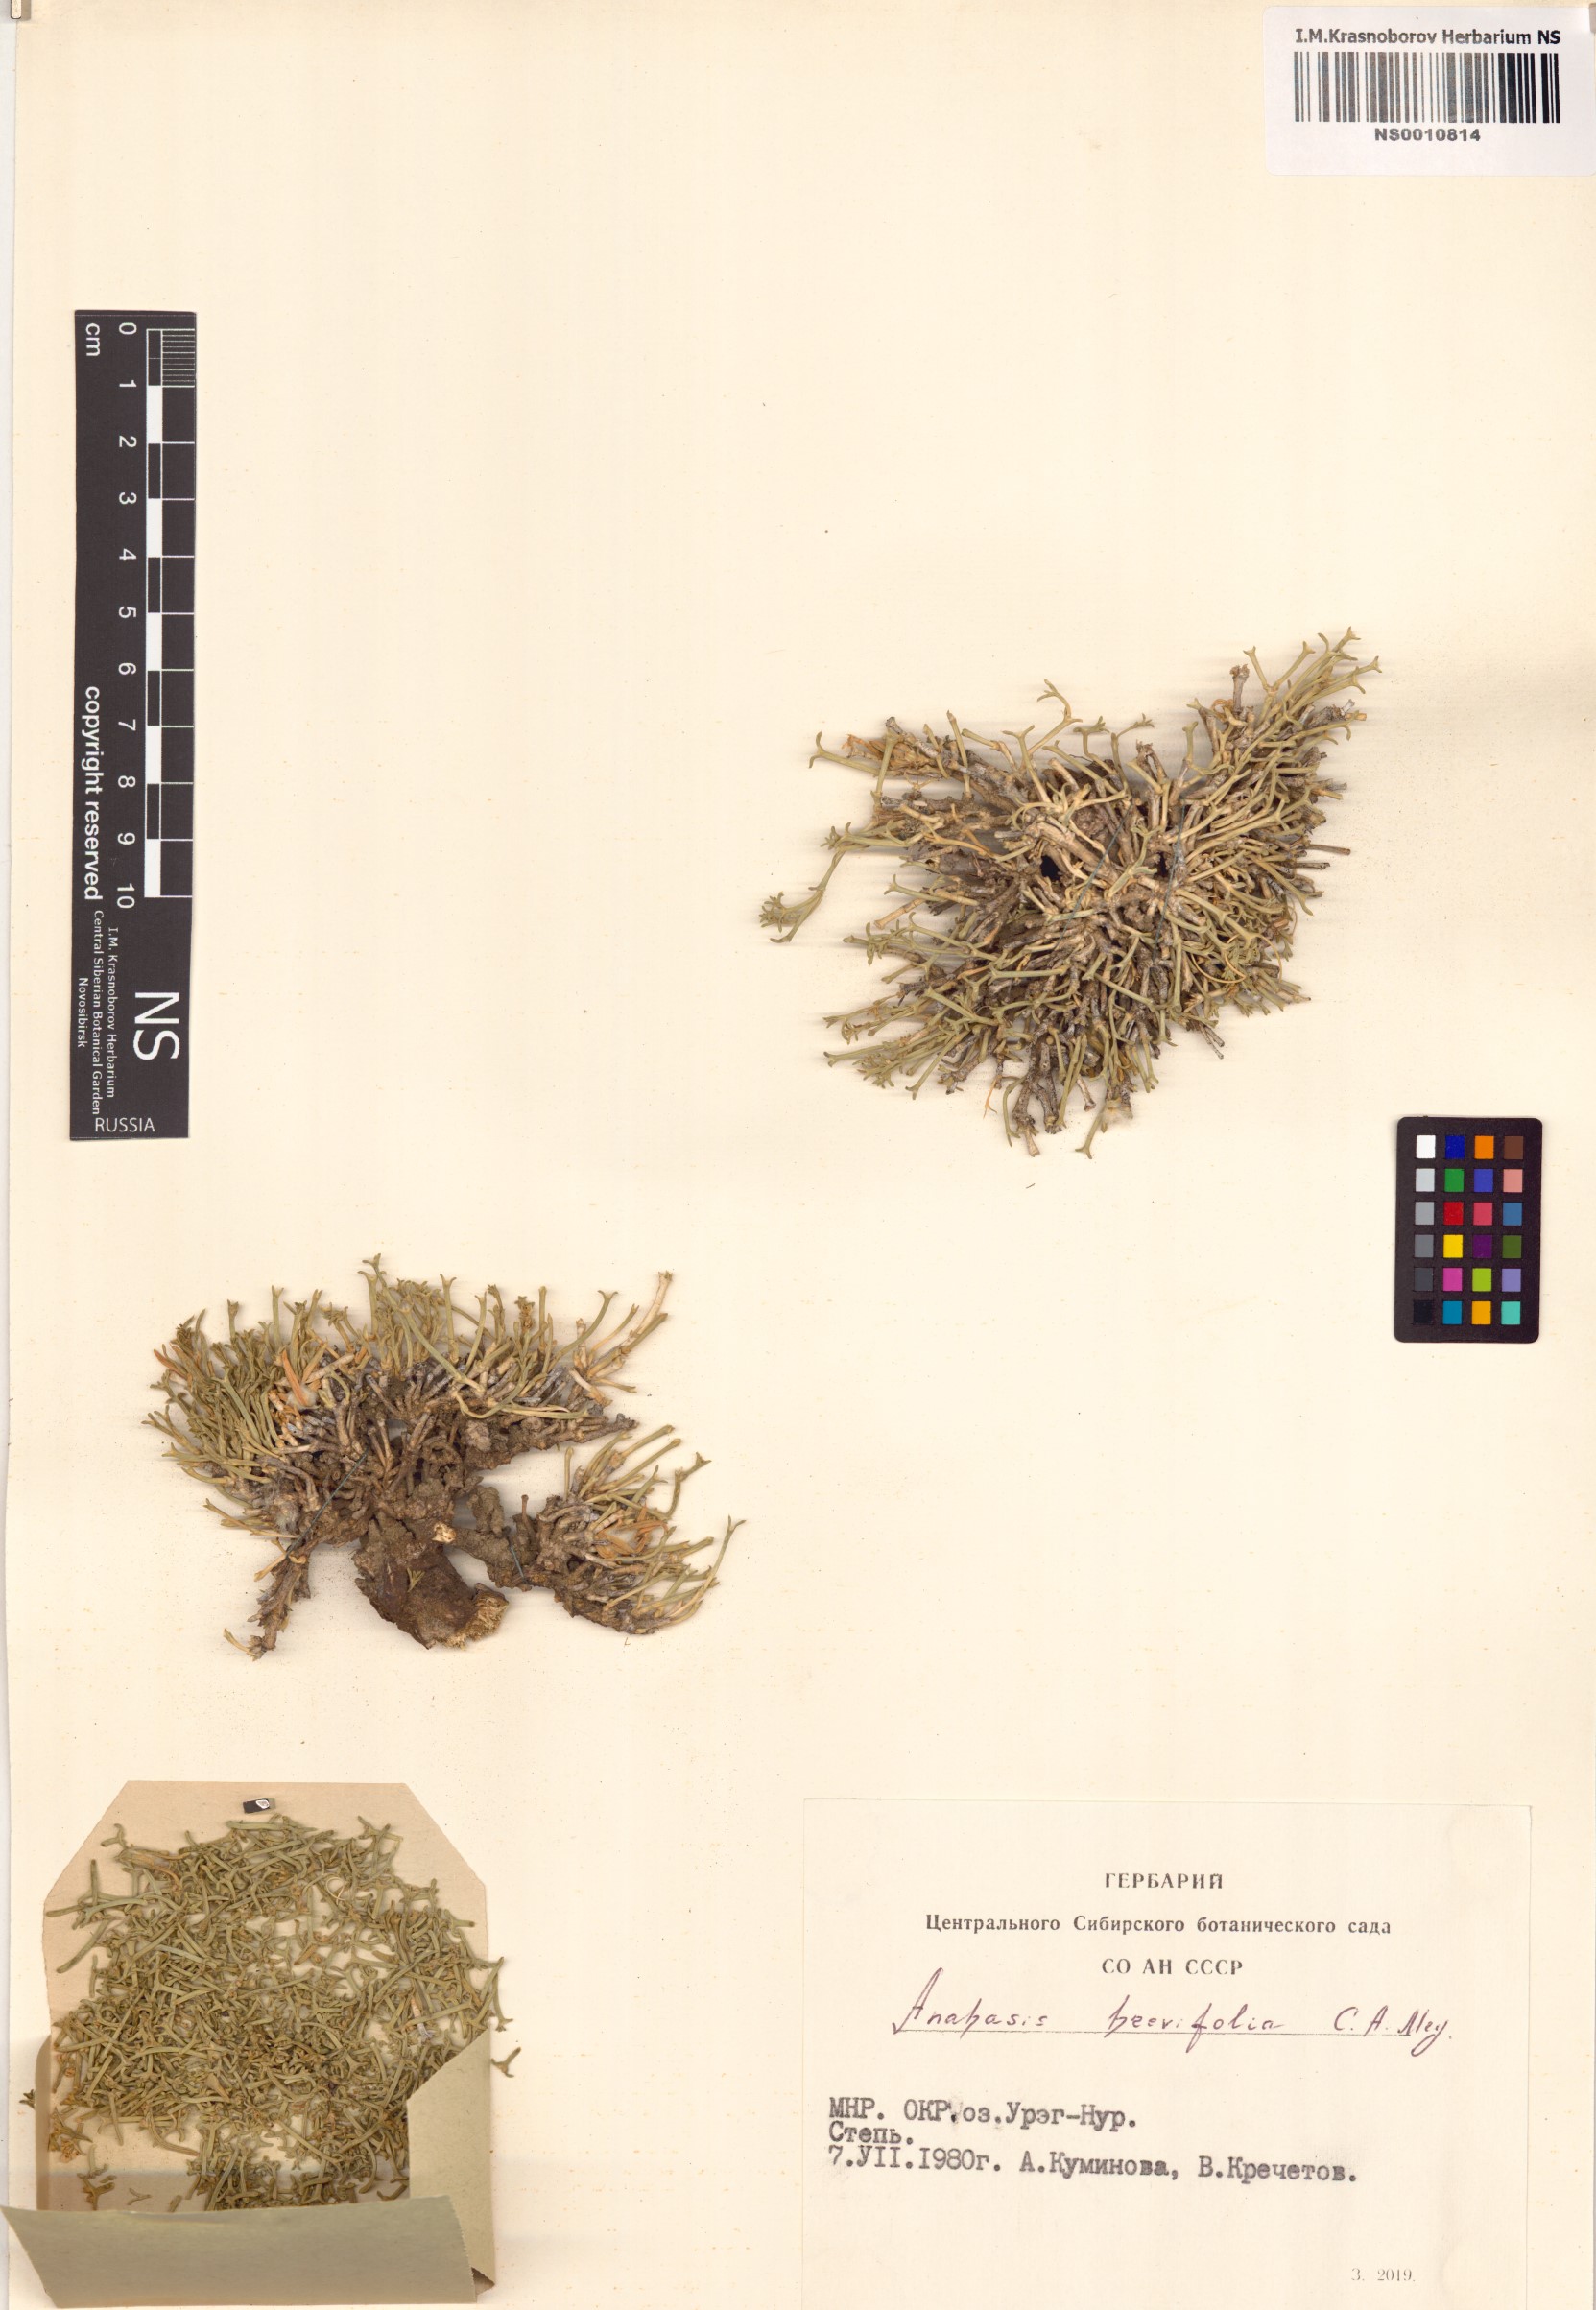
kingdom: Plantae
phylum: Tracheophyta
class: Magnoliopsida
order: Caryophyllales
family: Amaranthaceae
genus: Anabasis
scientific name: Anabasis brevifolia
